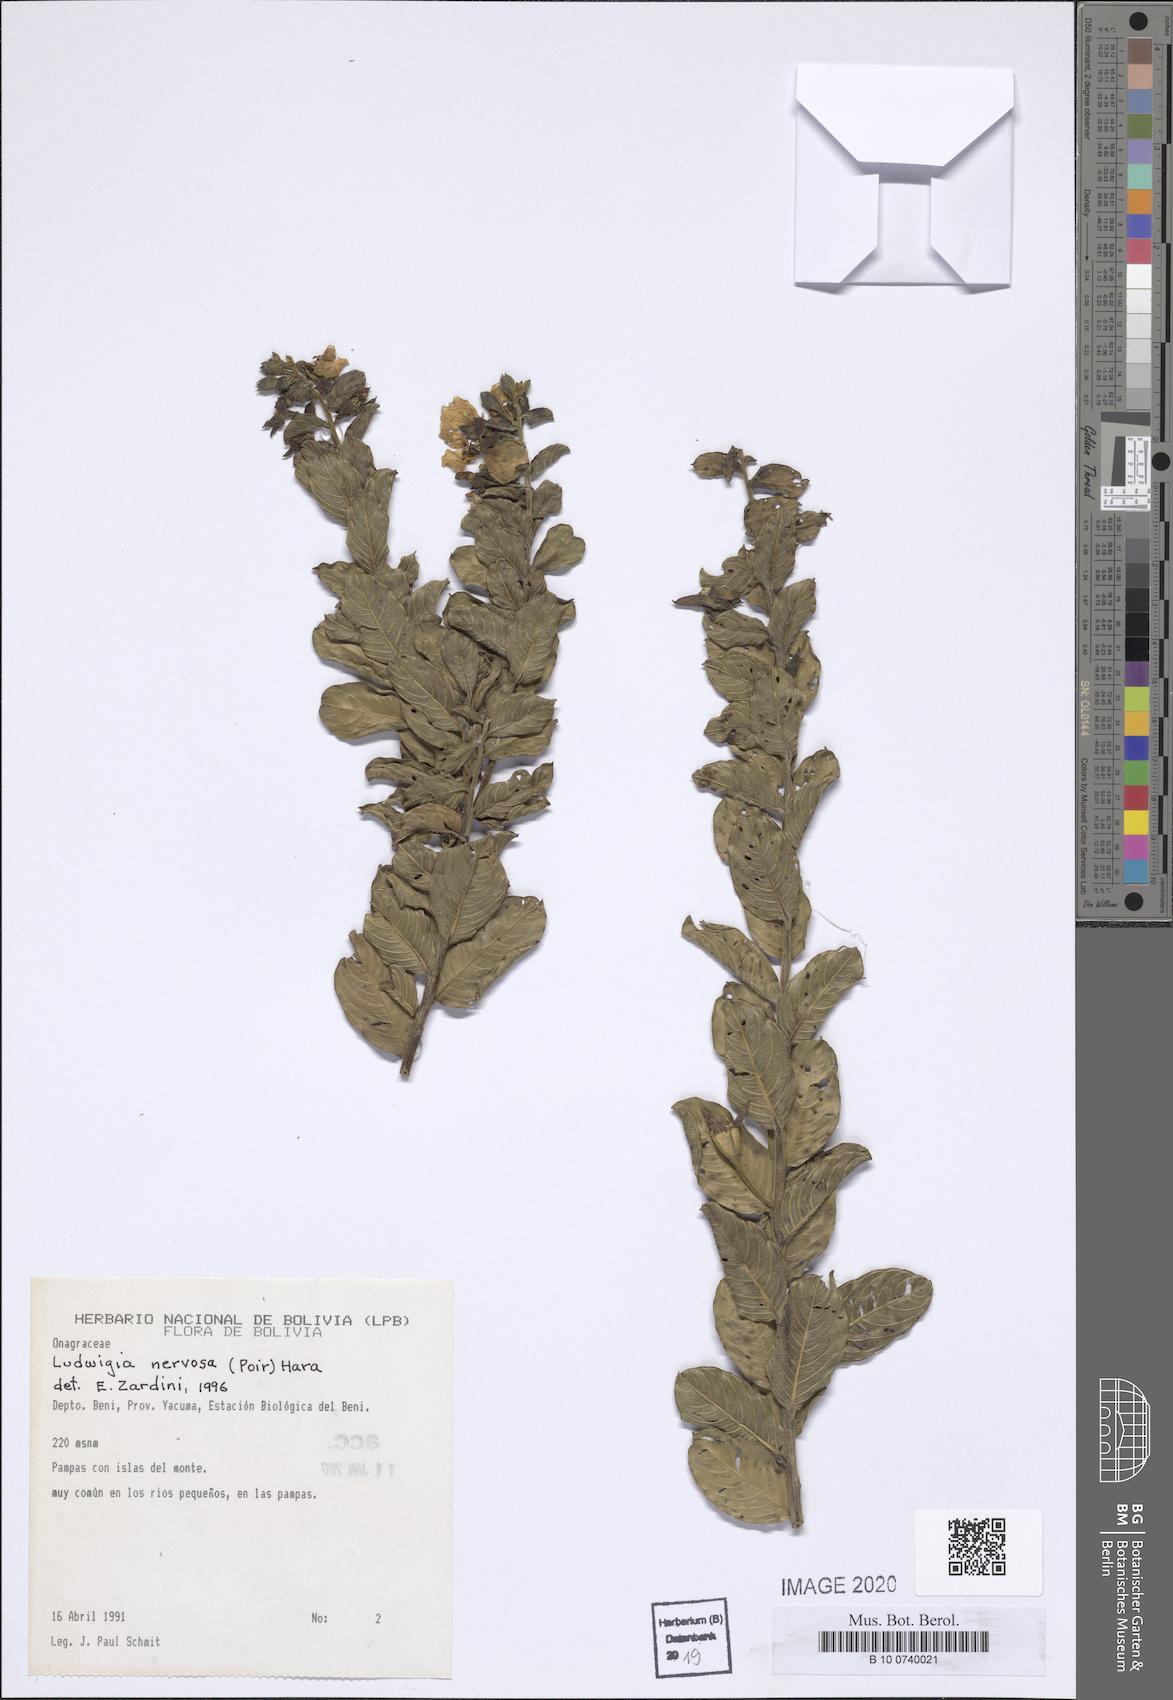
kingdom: Plantae
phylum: Tracheophyta
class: Magnoliopsida
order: Myrtales
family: Onagraceae
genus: Ludwigia
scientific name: Ludwigia nervosa
